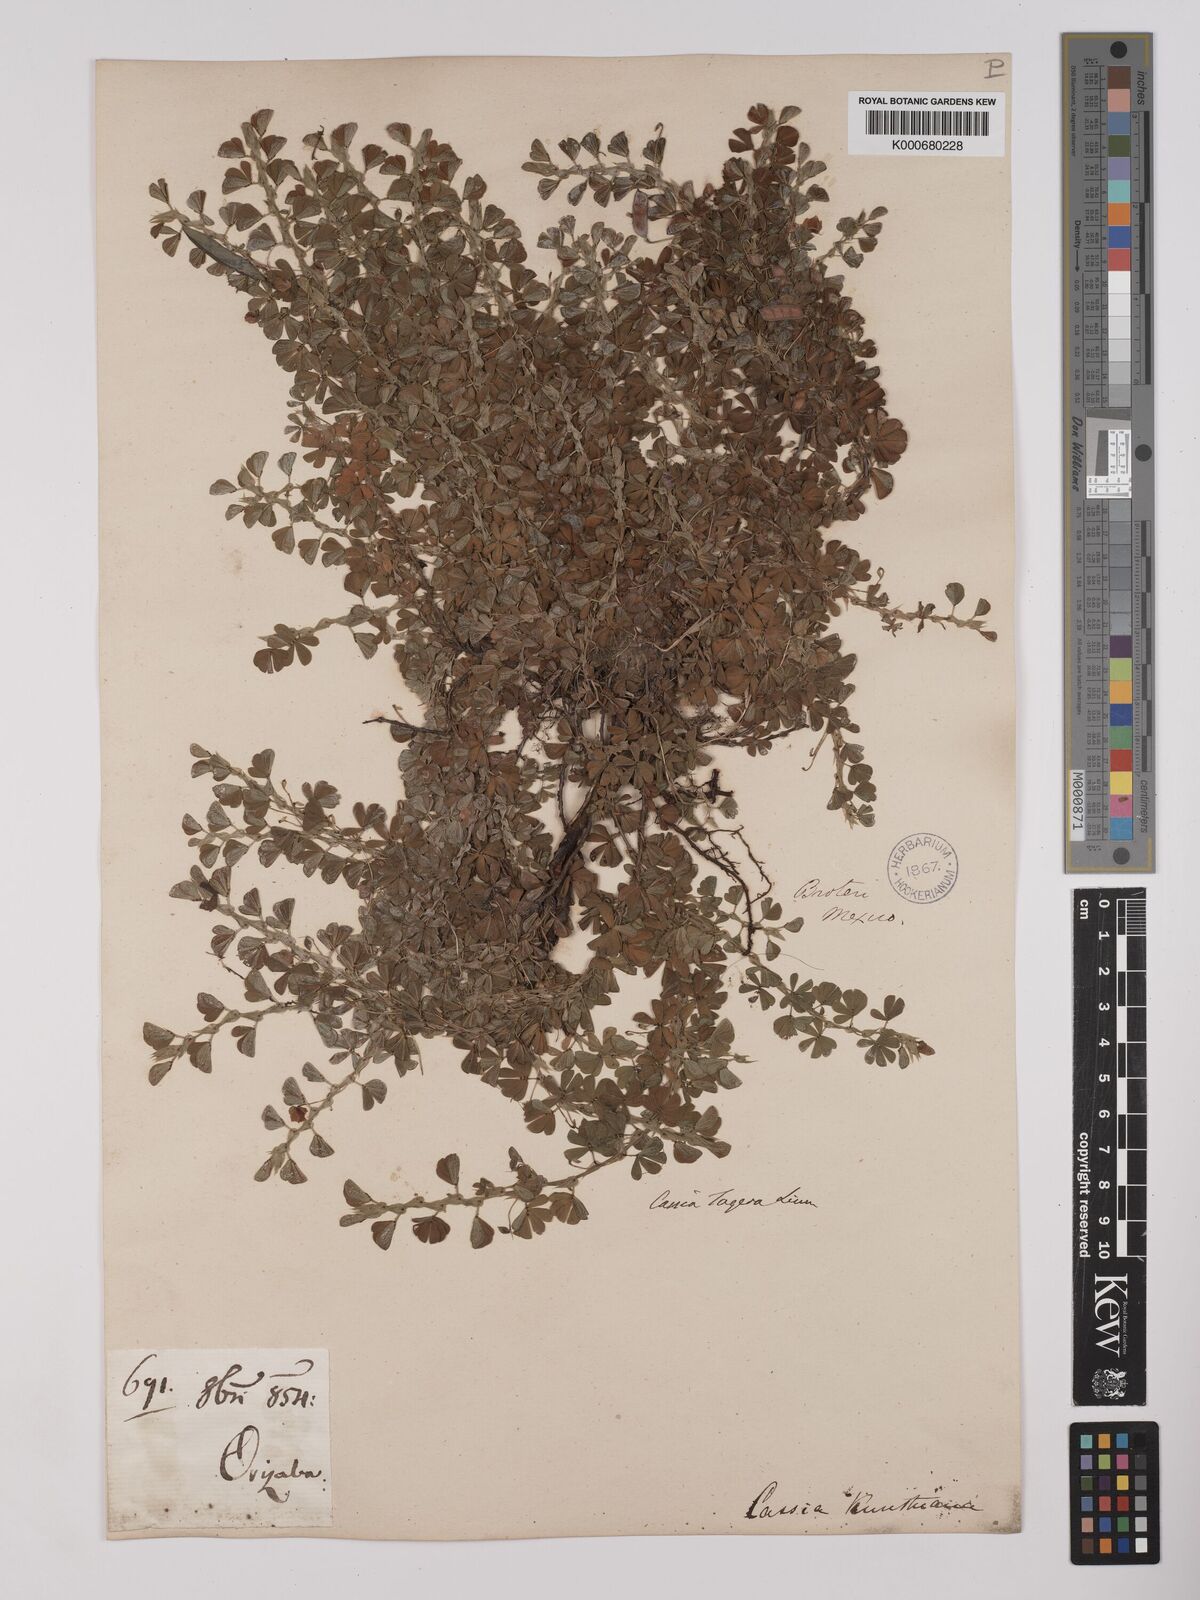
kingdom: Plantae
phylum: Tracheophyta
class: Magnoliopsida
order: Fabales
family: Fabaceae
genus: Chamaecrista
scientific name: Chamaecrista kunthiana
